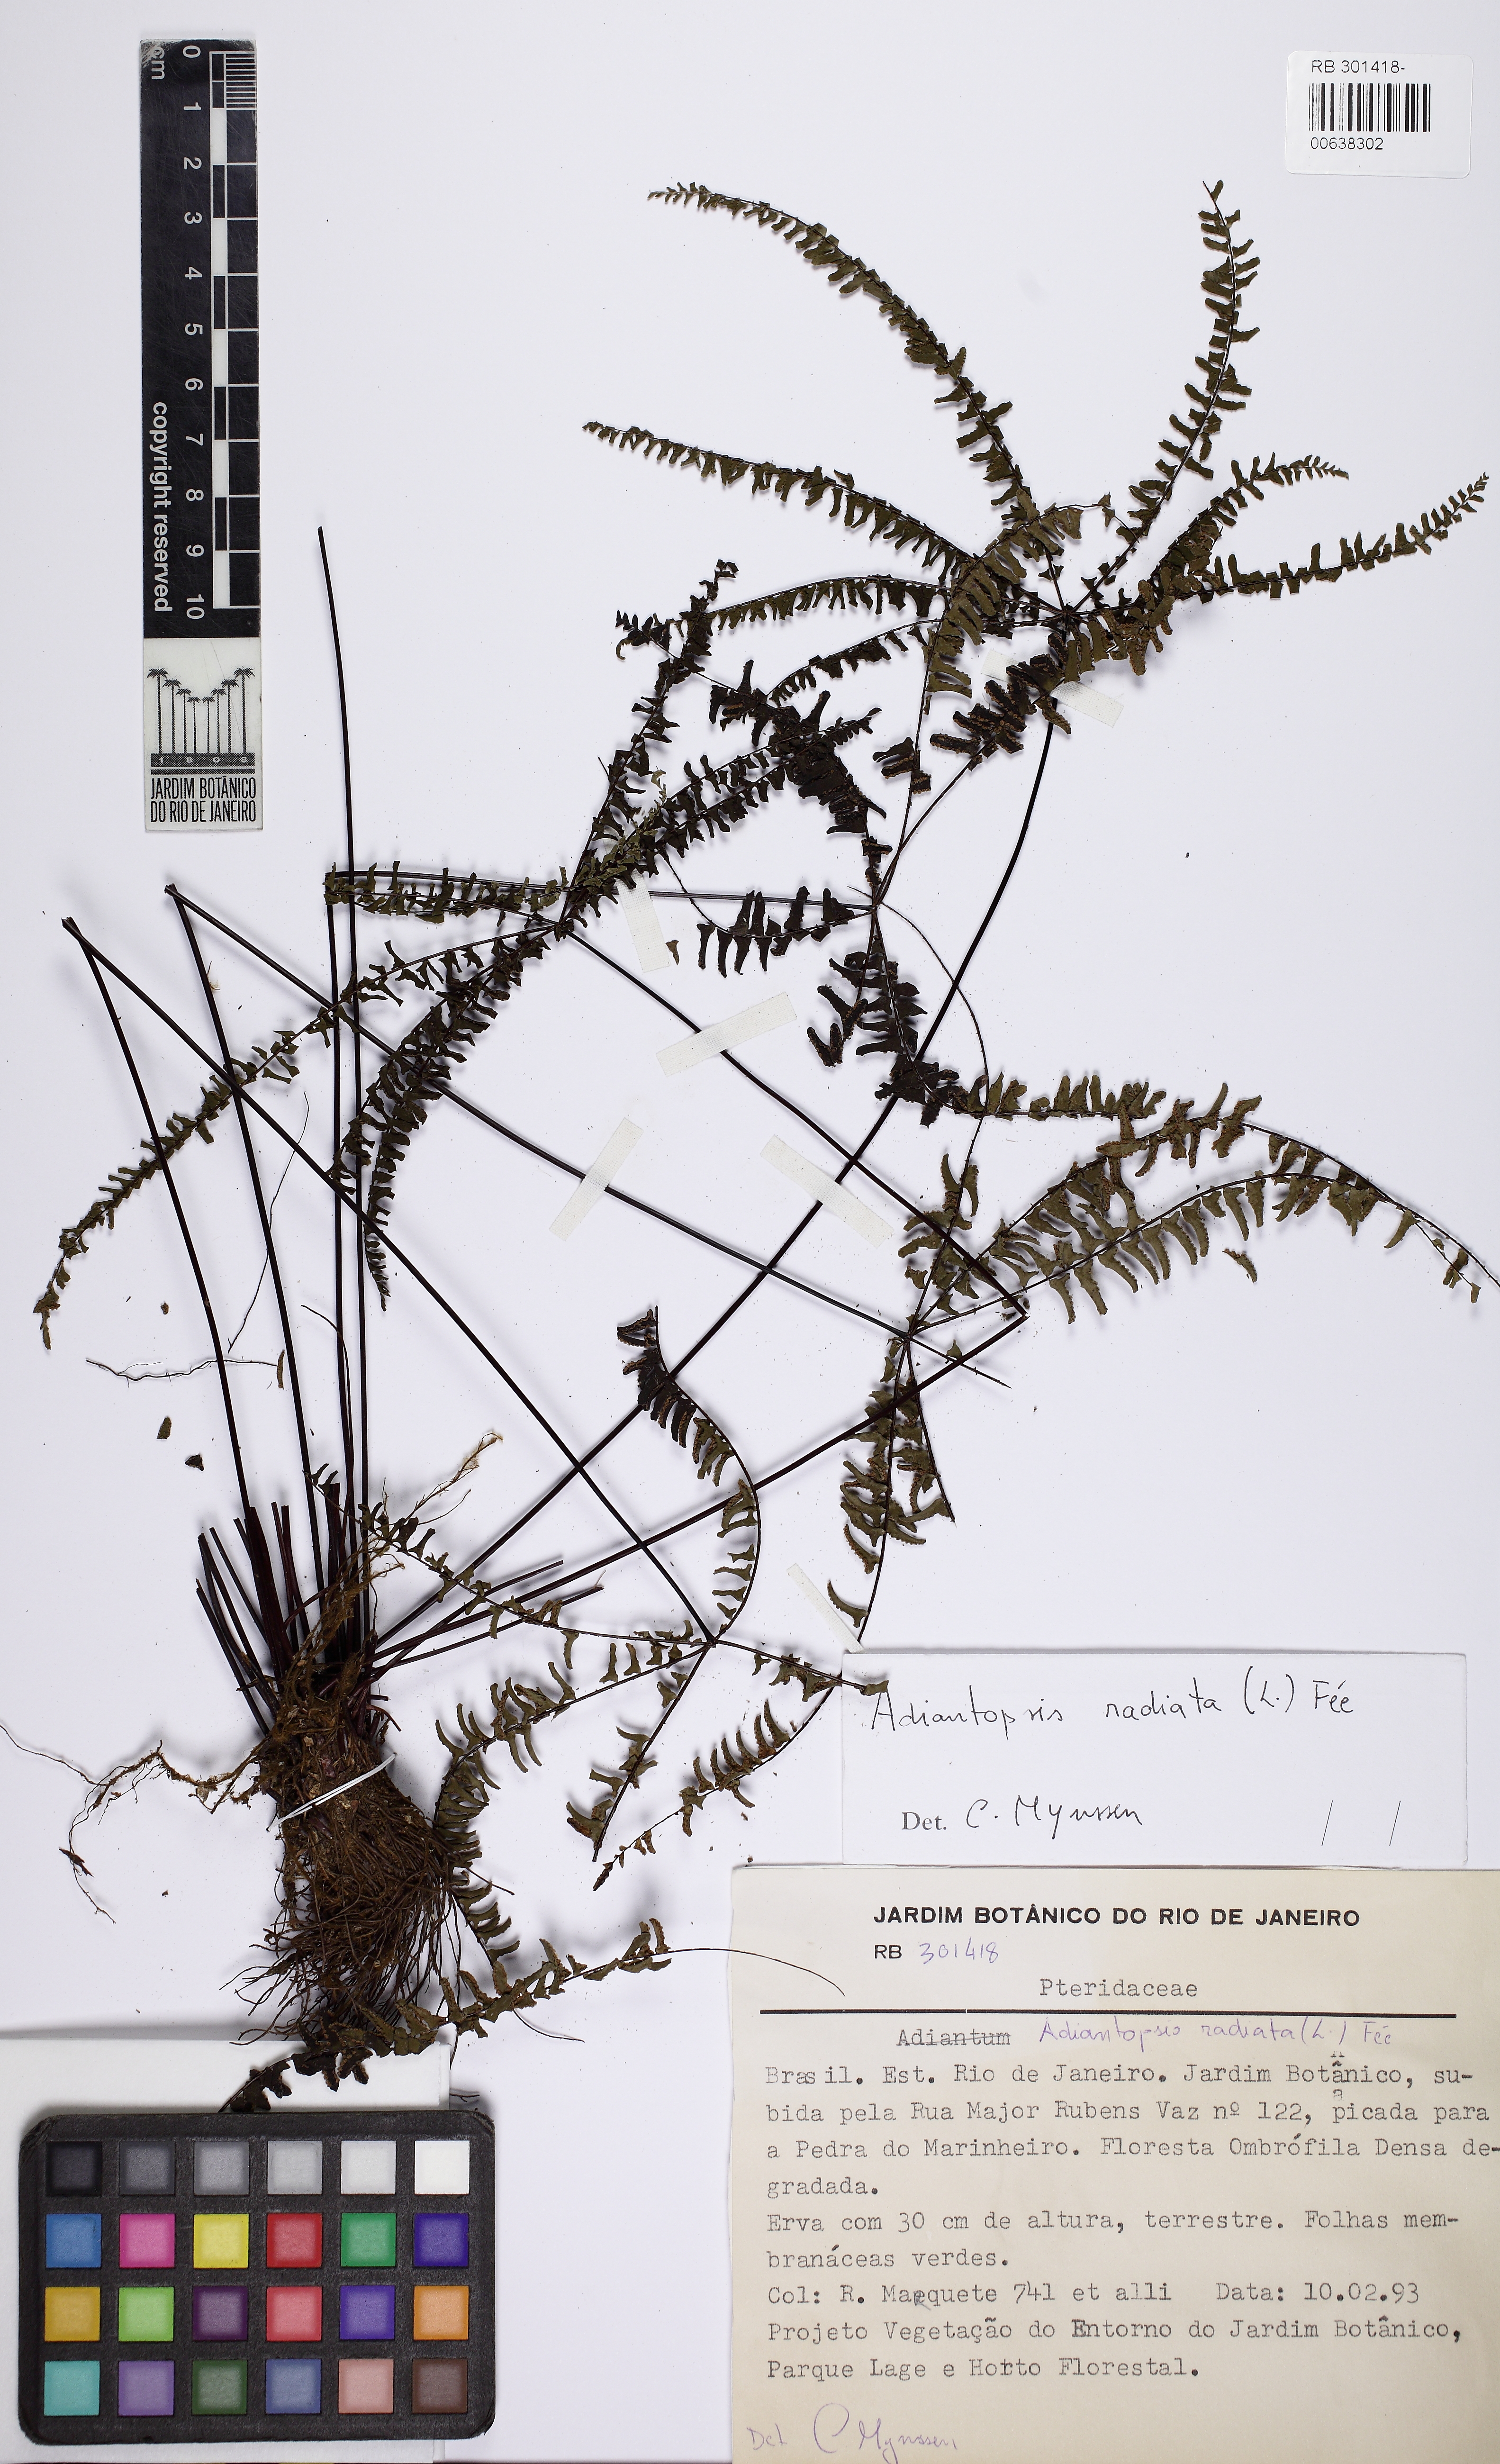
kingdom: Plantae
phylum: Tracheophyta
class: Polypodiopsida
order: Polypodiales
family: Pteridaceae
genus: Adiantopsis
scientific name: Adiantopsis radiata
